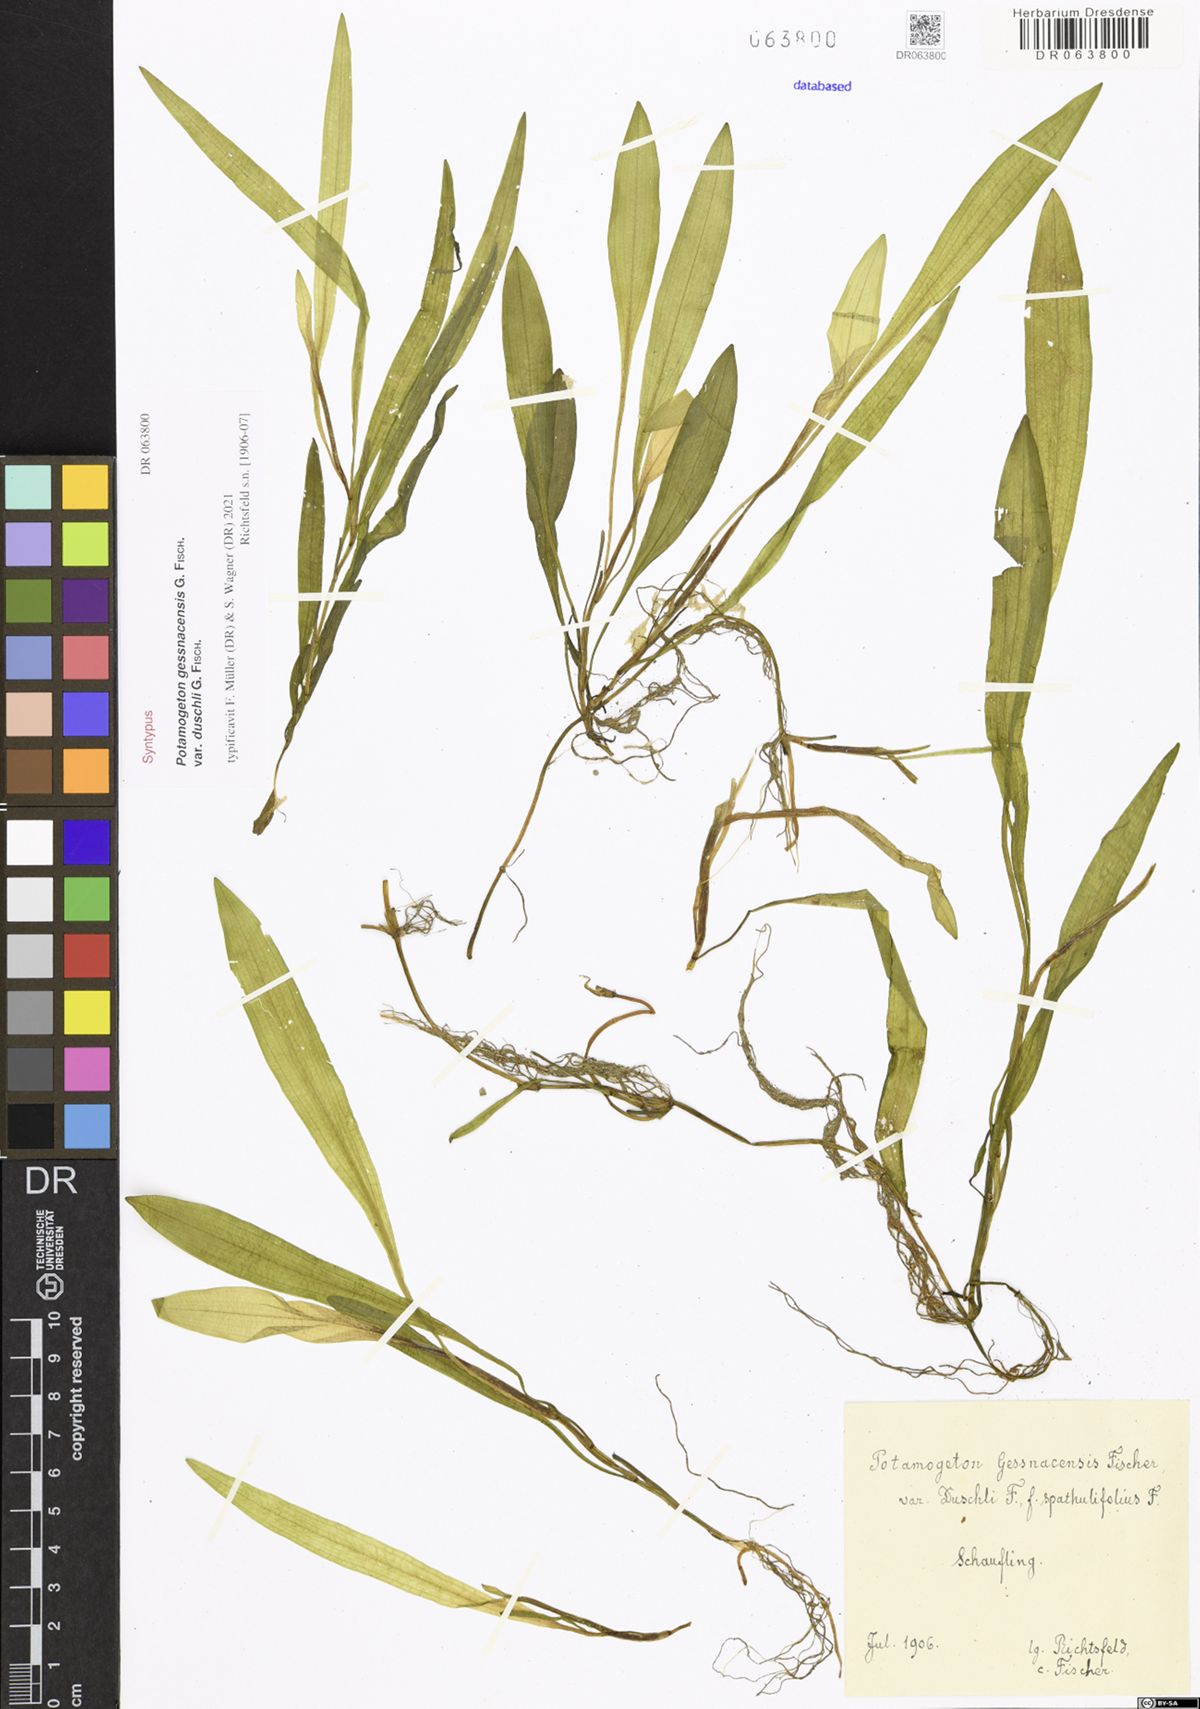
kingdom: Plantae
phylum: Tracheophyta
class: Liliopsida
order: Alismatales
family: Potamogetonaceae
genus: Potamogeton
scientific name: Potamogeton gessnacensis
